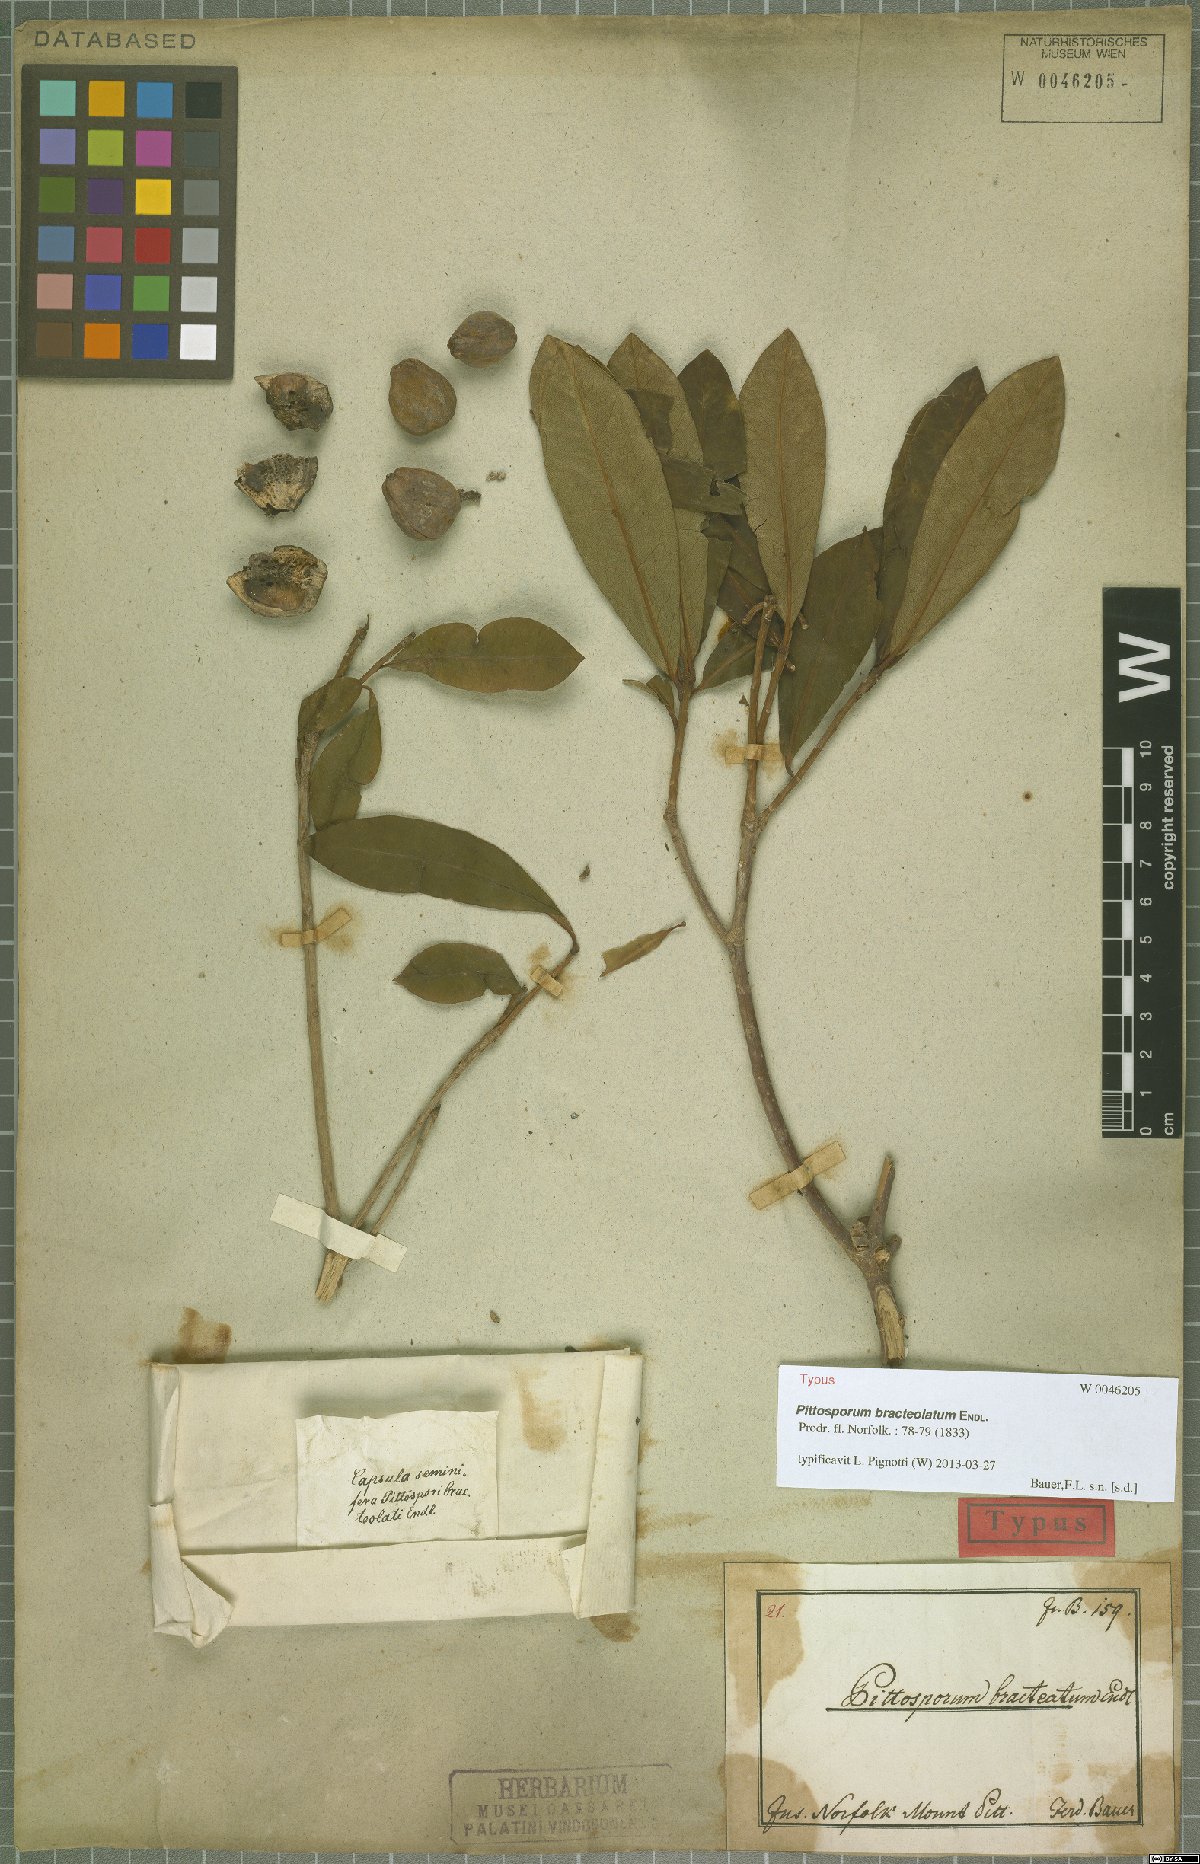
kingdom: Plantae
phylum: Tracheophyta
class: Magnoliopsida
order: Apiales
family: Pittosporaceae
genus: Pittosporum
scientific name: Pittosporum bracteolatum
